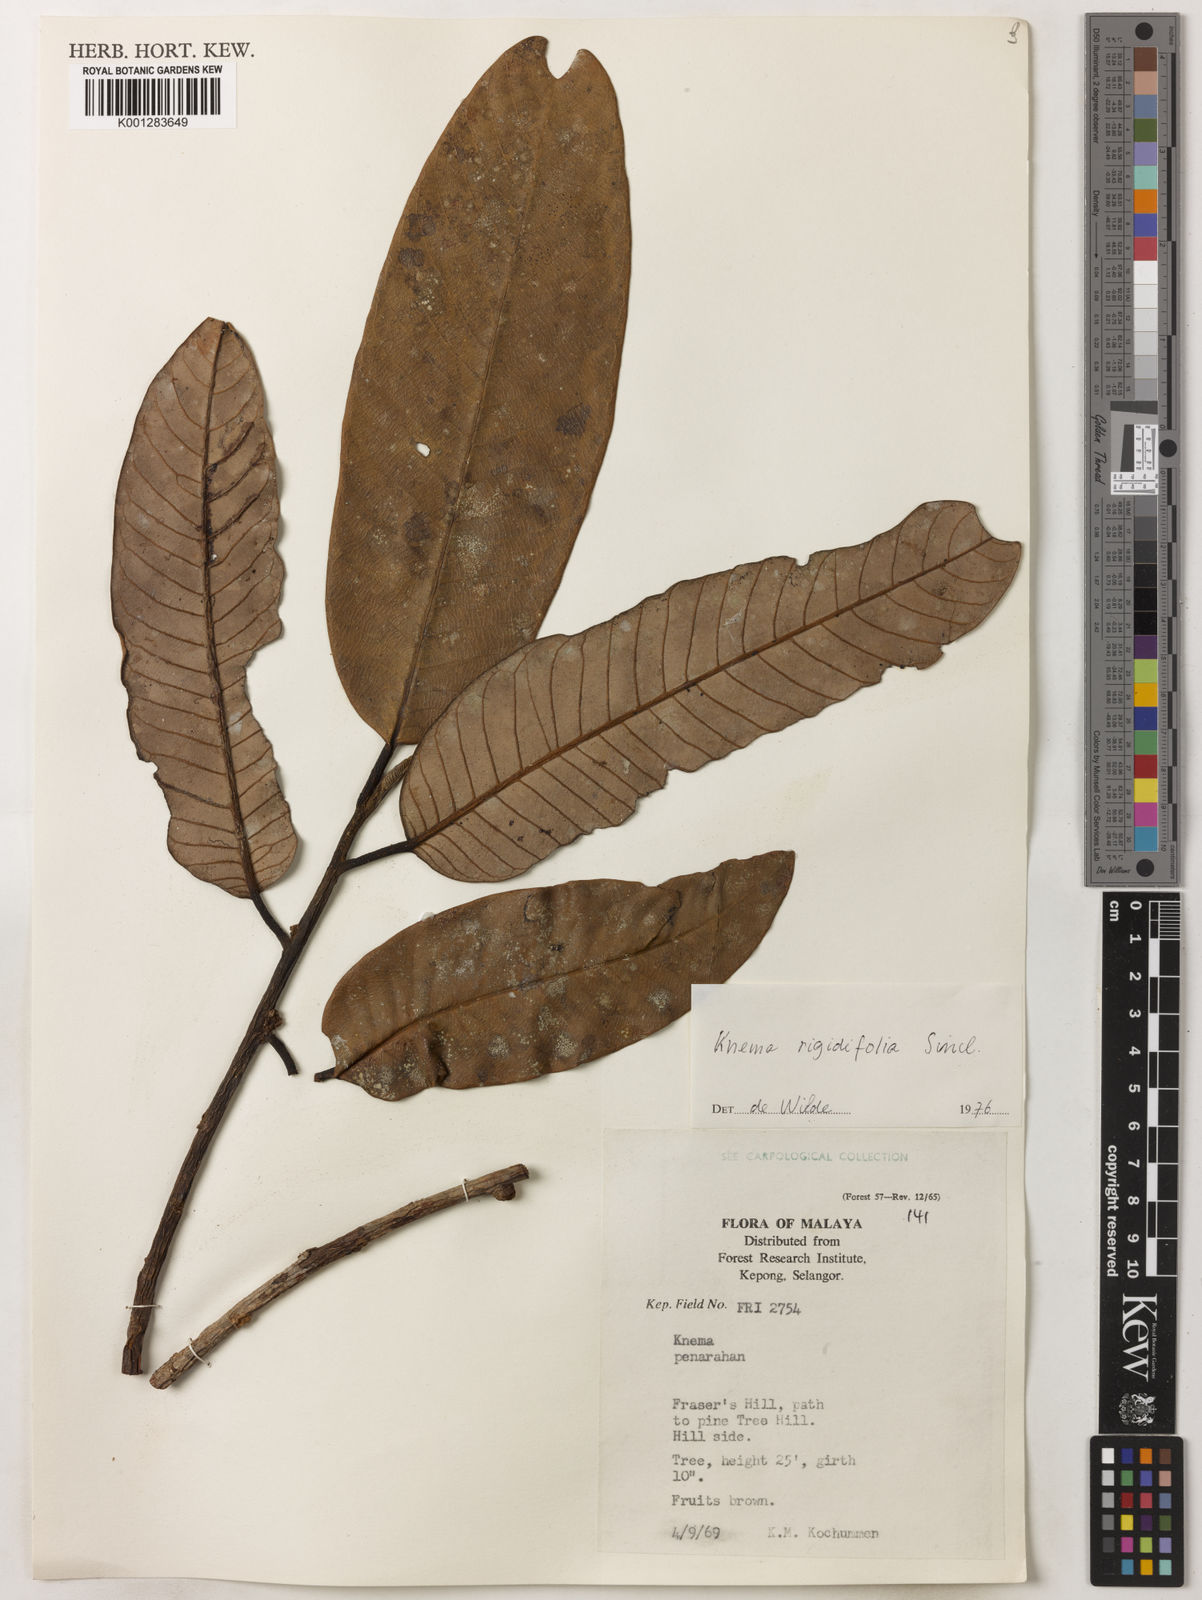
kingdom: Plantae
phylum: Tracheophyta
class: Magnoliopsida
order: Magnoliales
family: Myristicaceae
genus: Knema
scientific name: Knema rigidifolia
